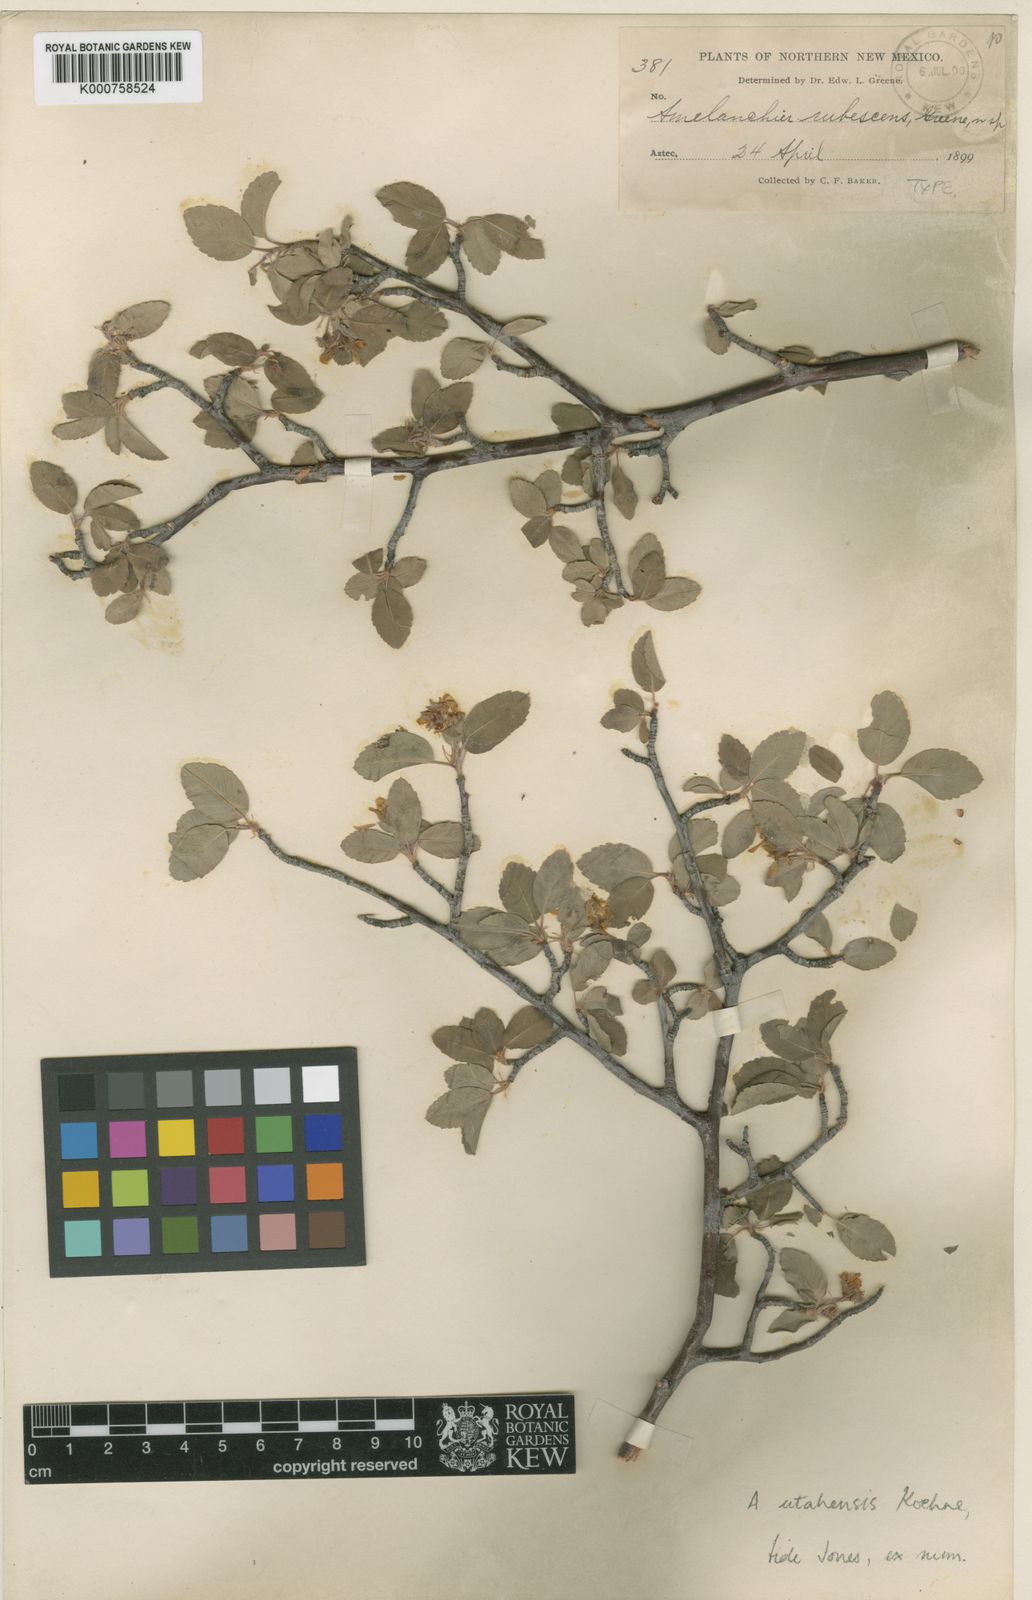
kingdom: Plantae
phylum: Tracheophyta
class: Magnoliopsida
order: Rosales
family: Rosaceae
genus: Amelanchier
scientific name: Amelanchier utahensis
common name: Utah serviceberry
